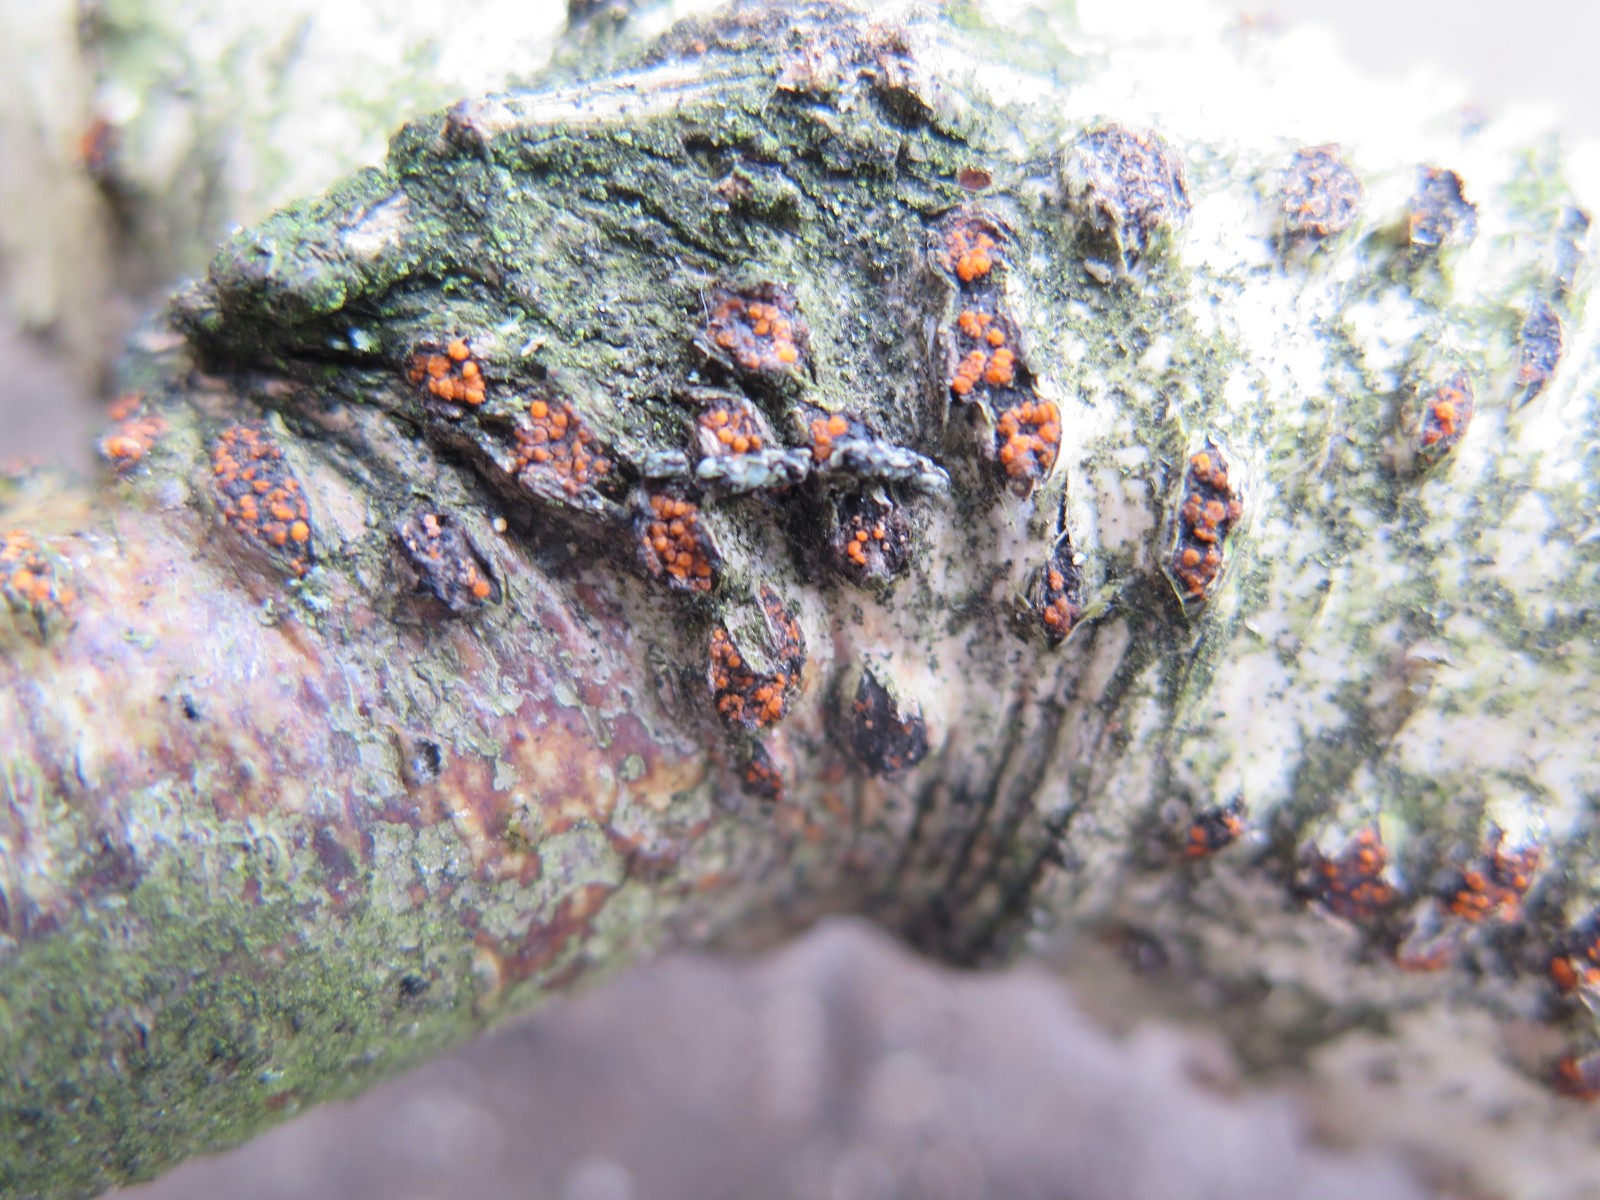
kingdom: Fungi
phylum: Ascomycota
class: Sordariomycetes
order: Hypocreales
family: Nectriaceae
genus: Dialonectria
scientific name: Dialonectria magnusiana
